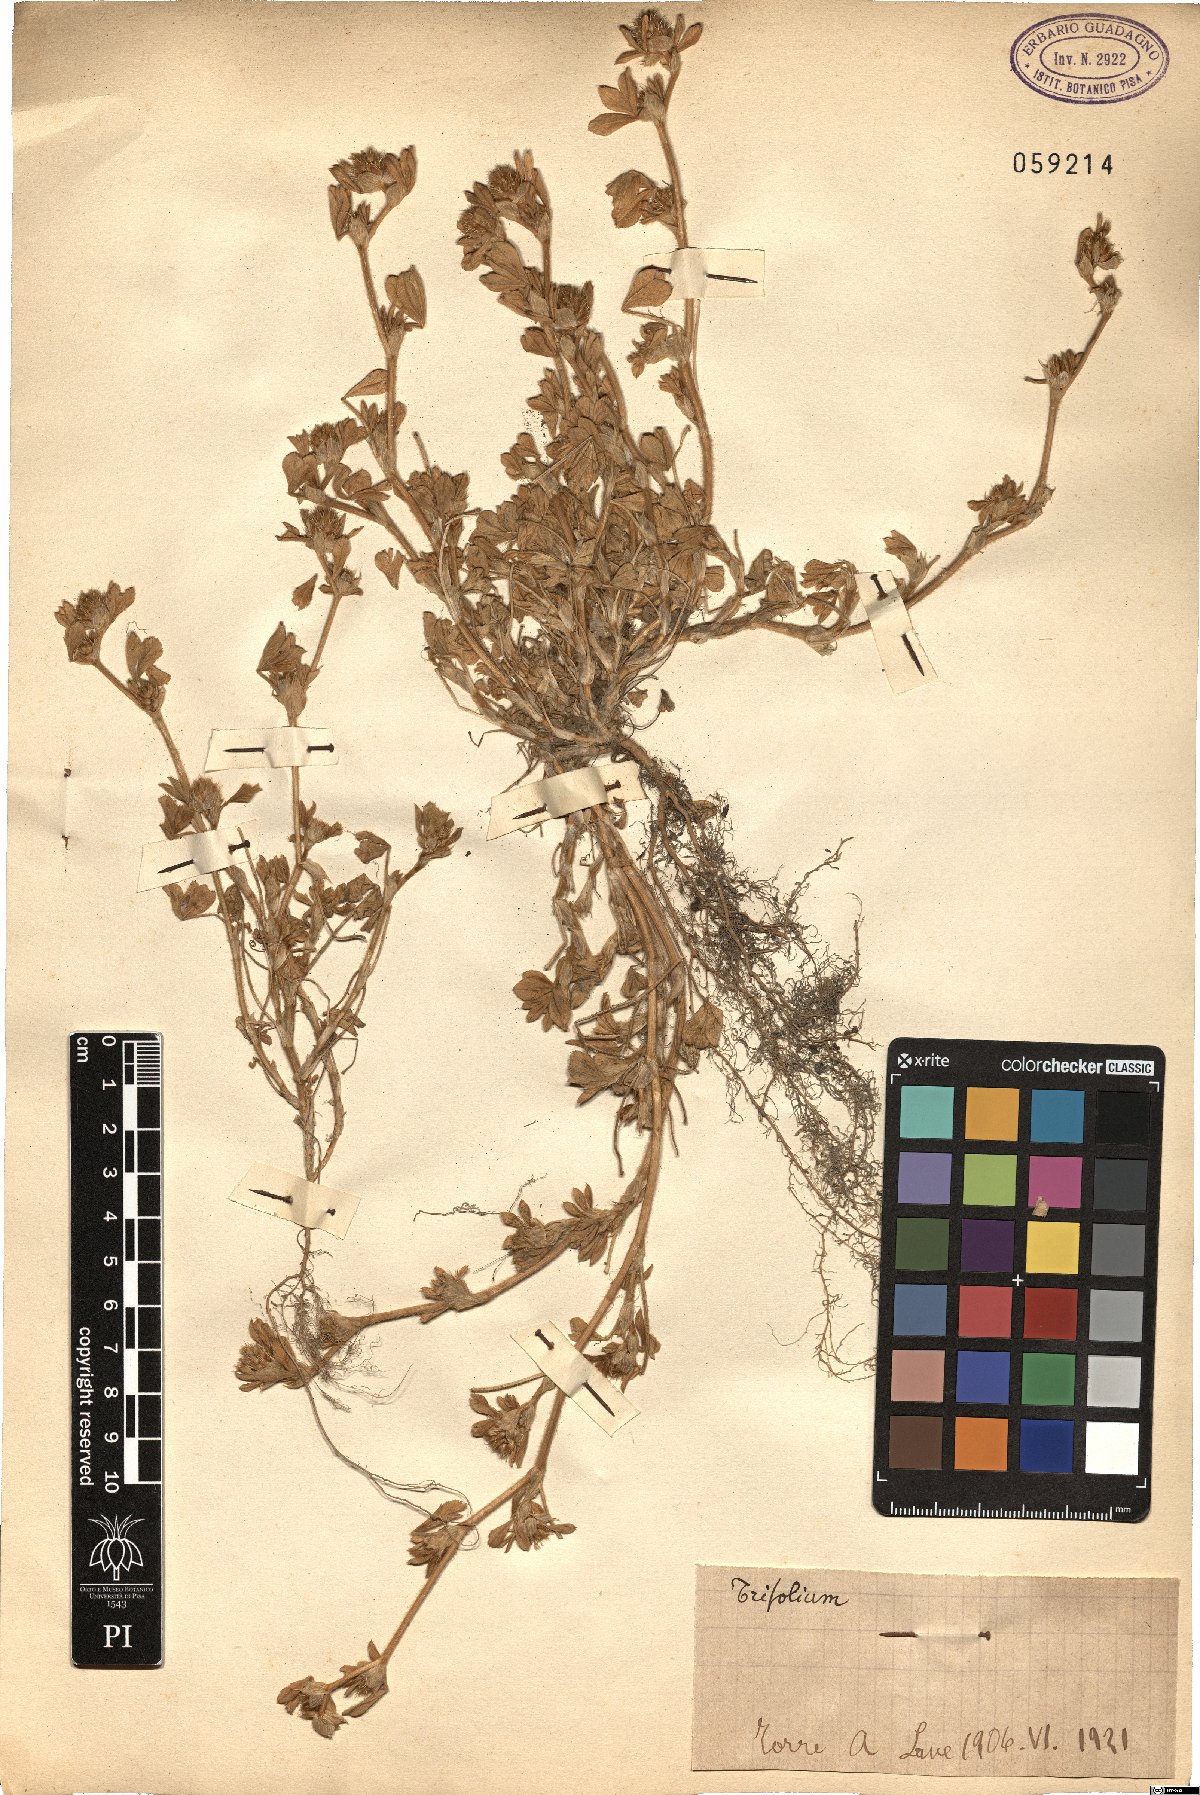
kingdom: Plantae
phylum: Tracheophyta
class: Magnoliopsida
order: Fabales
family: Fabaceae
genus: Trifolium
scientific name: Trifolium
